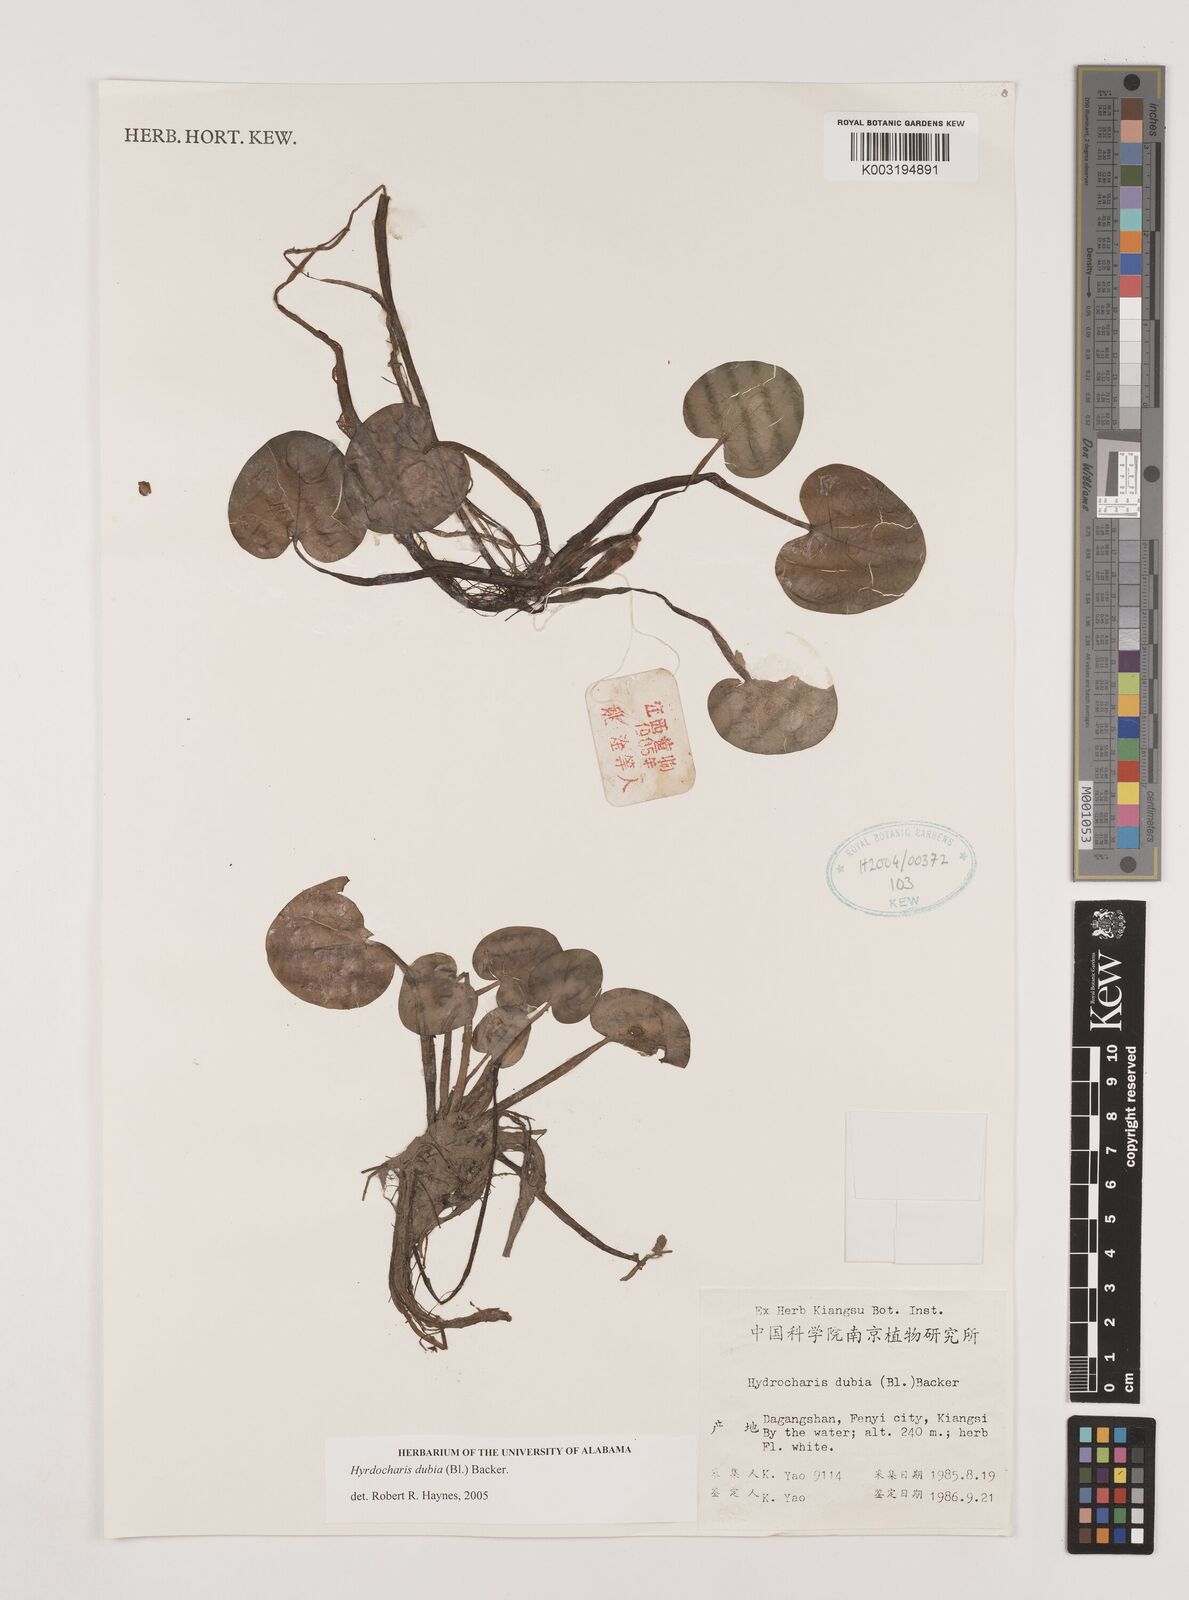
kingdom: Plantae
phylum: Tracheophyta
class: Liliopsida
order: Alismatales
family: Hydrocharitaceae
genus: Hydrocharis
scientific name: Hydrocharis dubia
